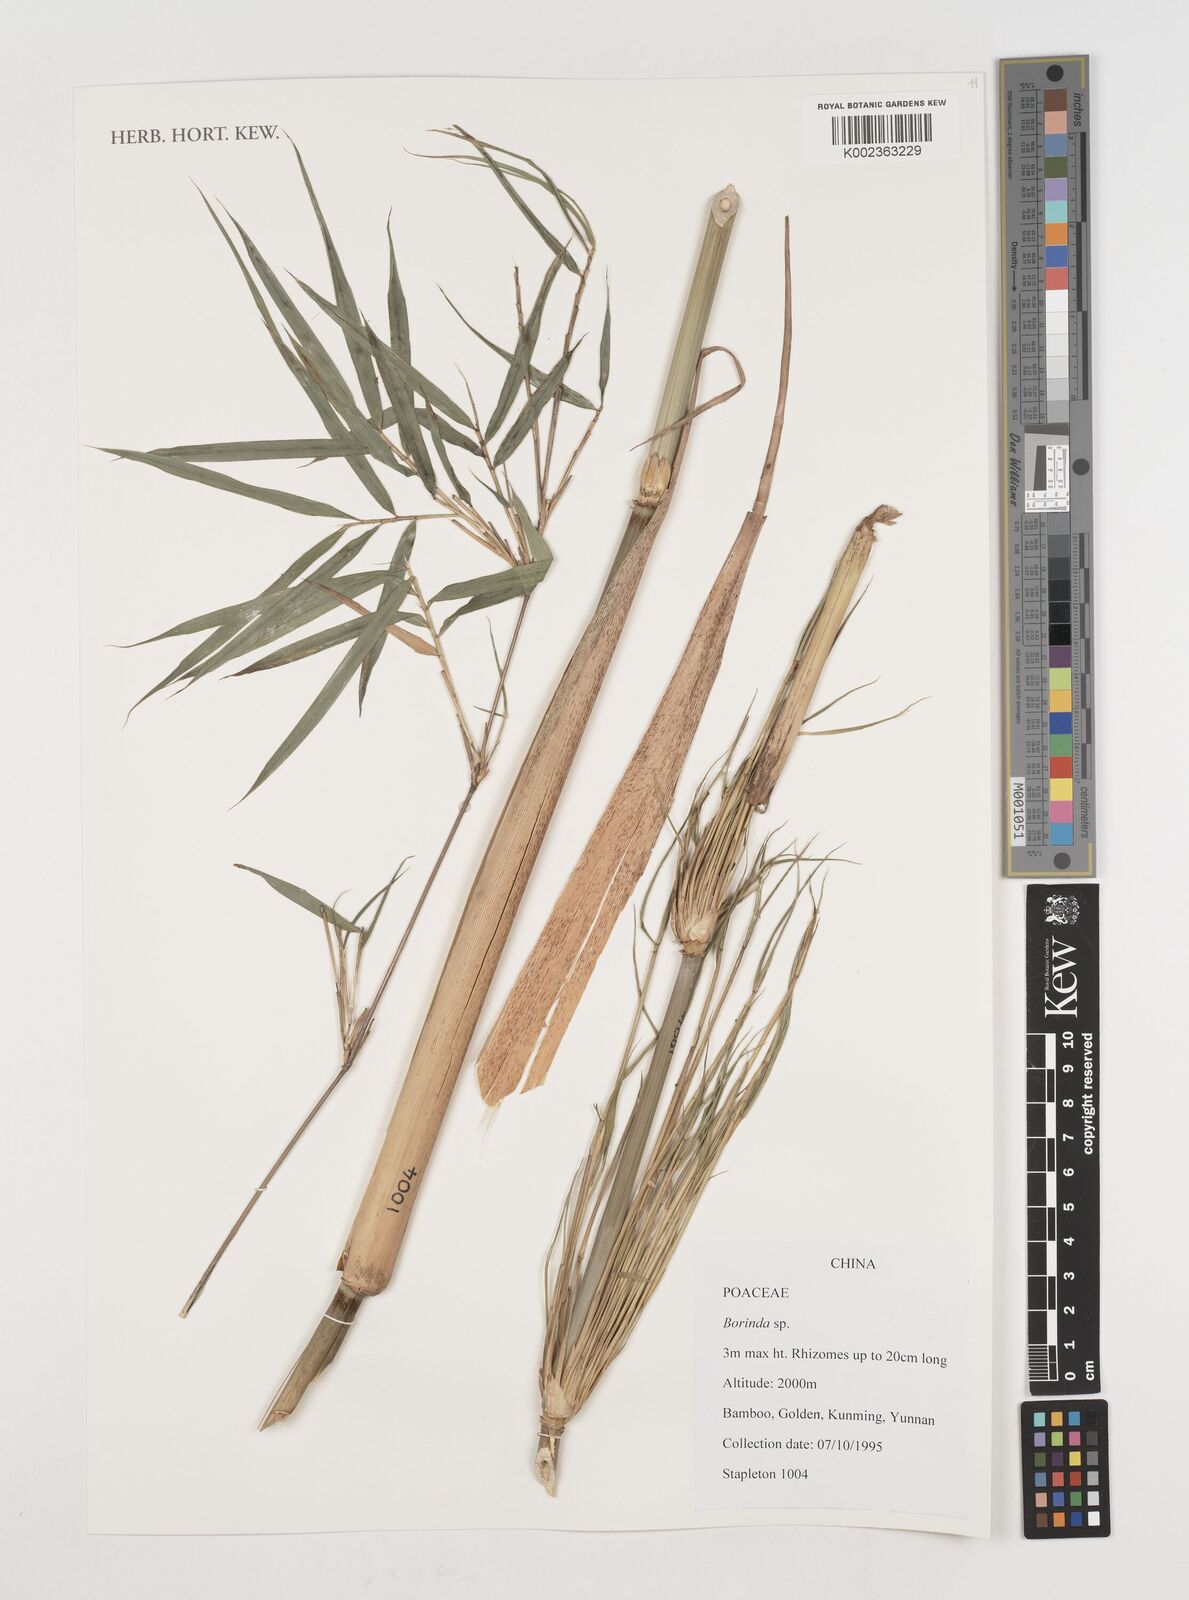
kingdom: Plantae
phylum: Tracheophyta
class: Liliopsida
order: Poales
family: Poaceae
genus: Fargesia
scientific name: Fargesia
